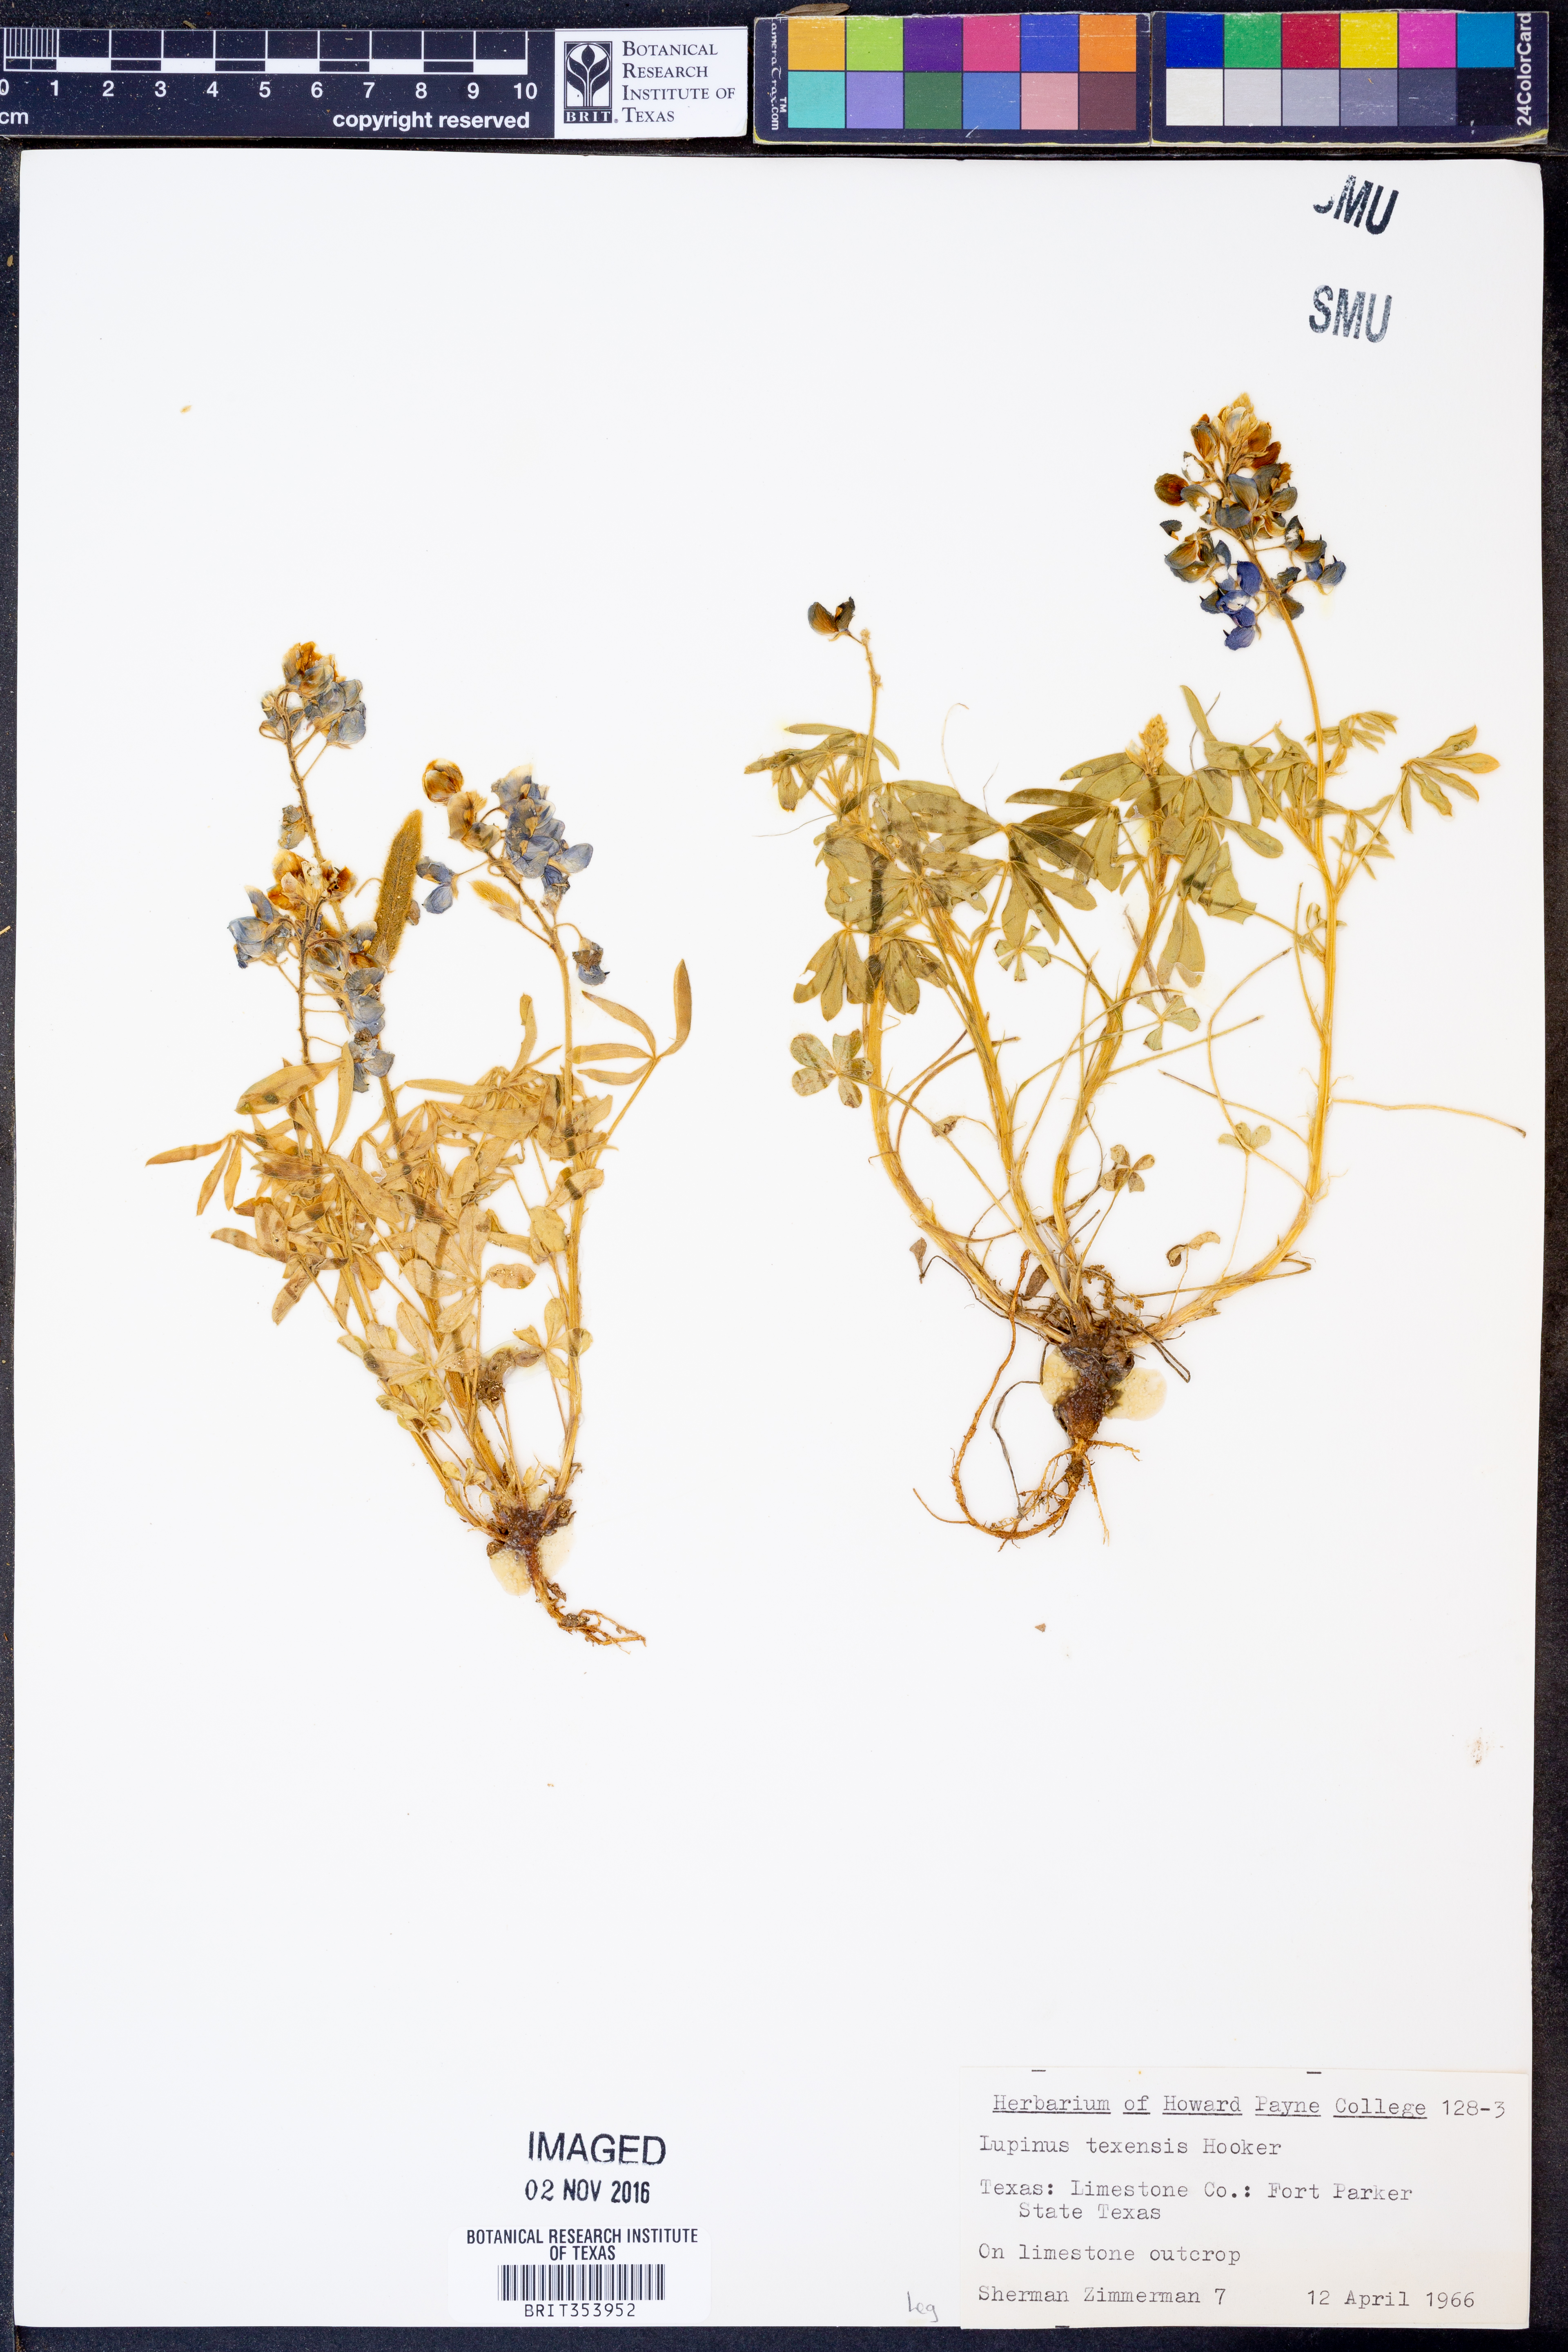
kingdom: Plantae
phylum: Tracheophyta
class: Magnoliopsida
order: Fabales
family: Fabaceae
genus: Lupinus
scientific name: Lupinus texensis
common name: Texas bluebonnet
